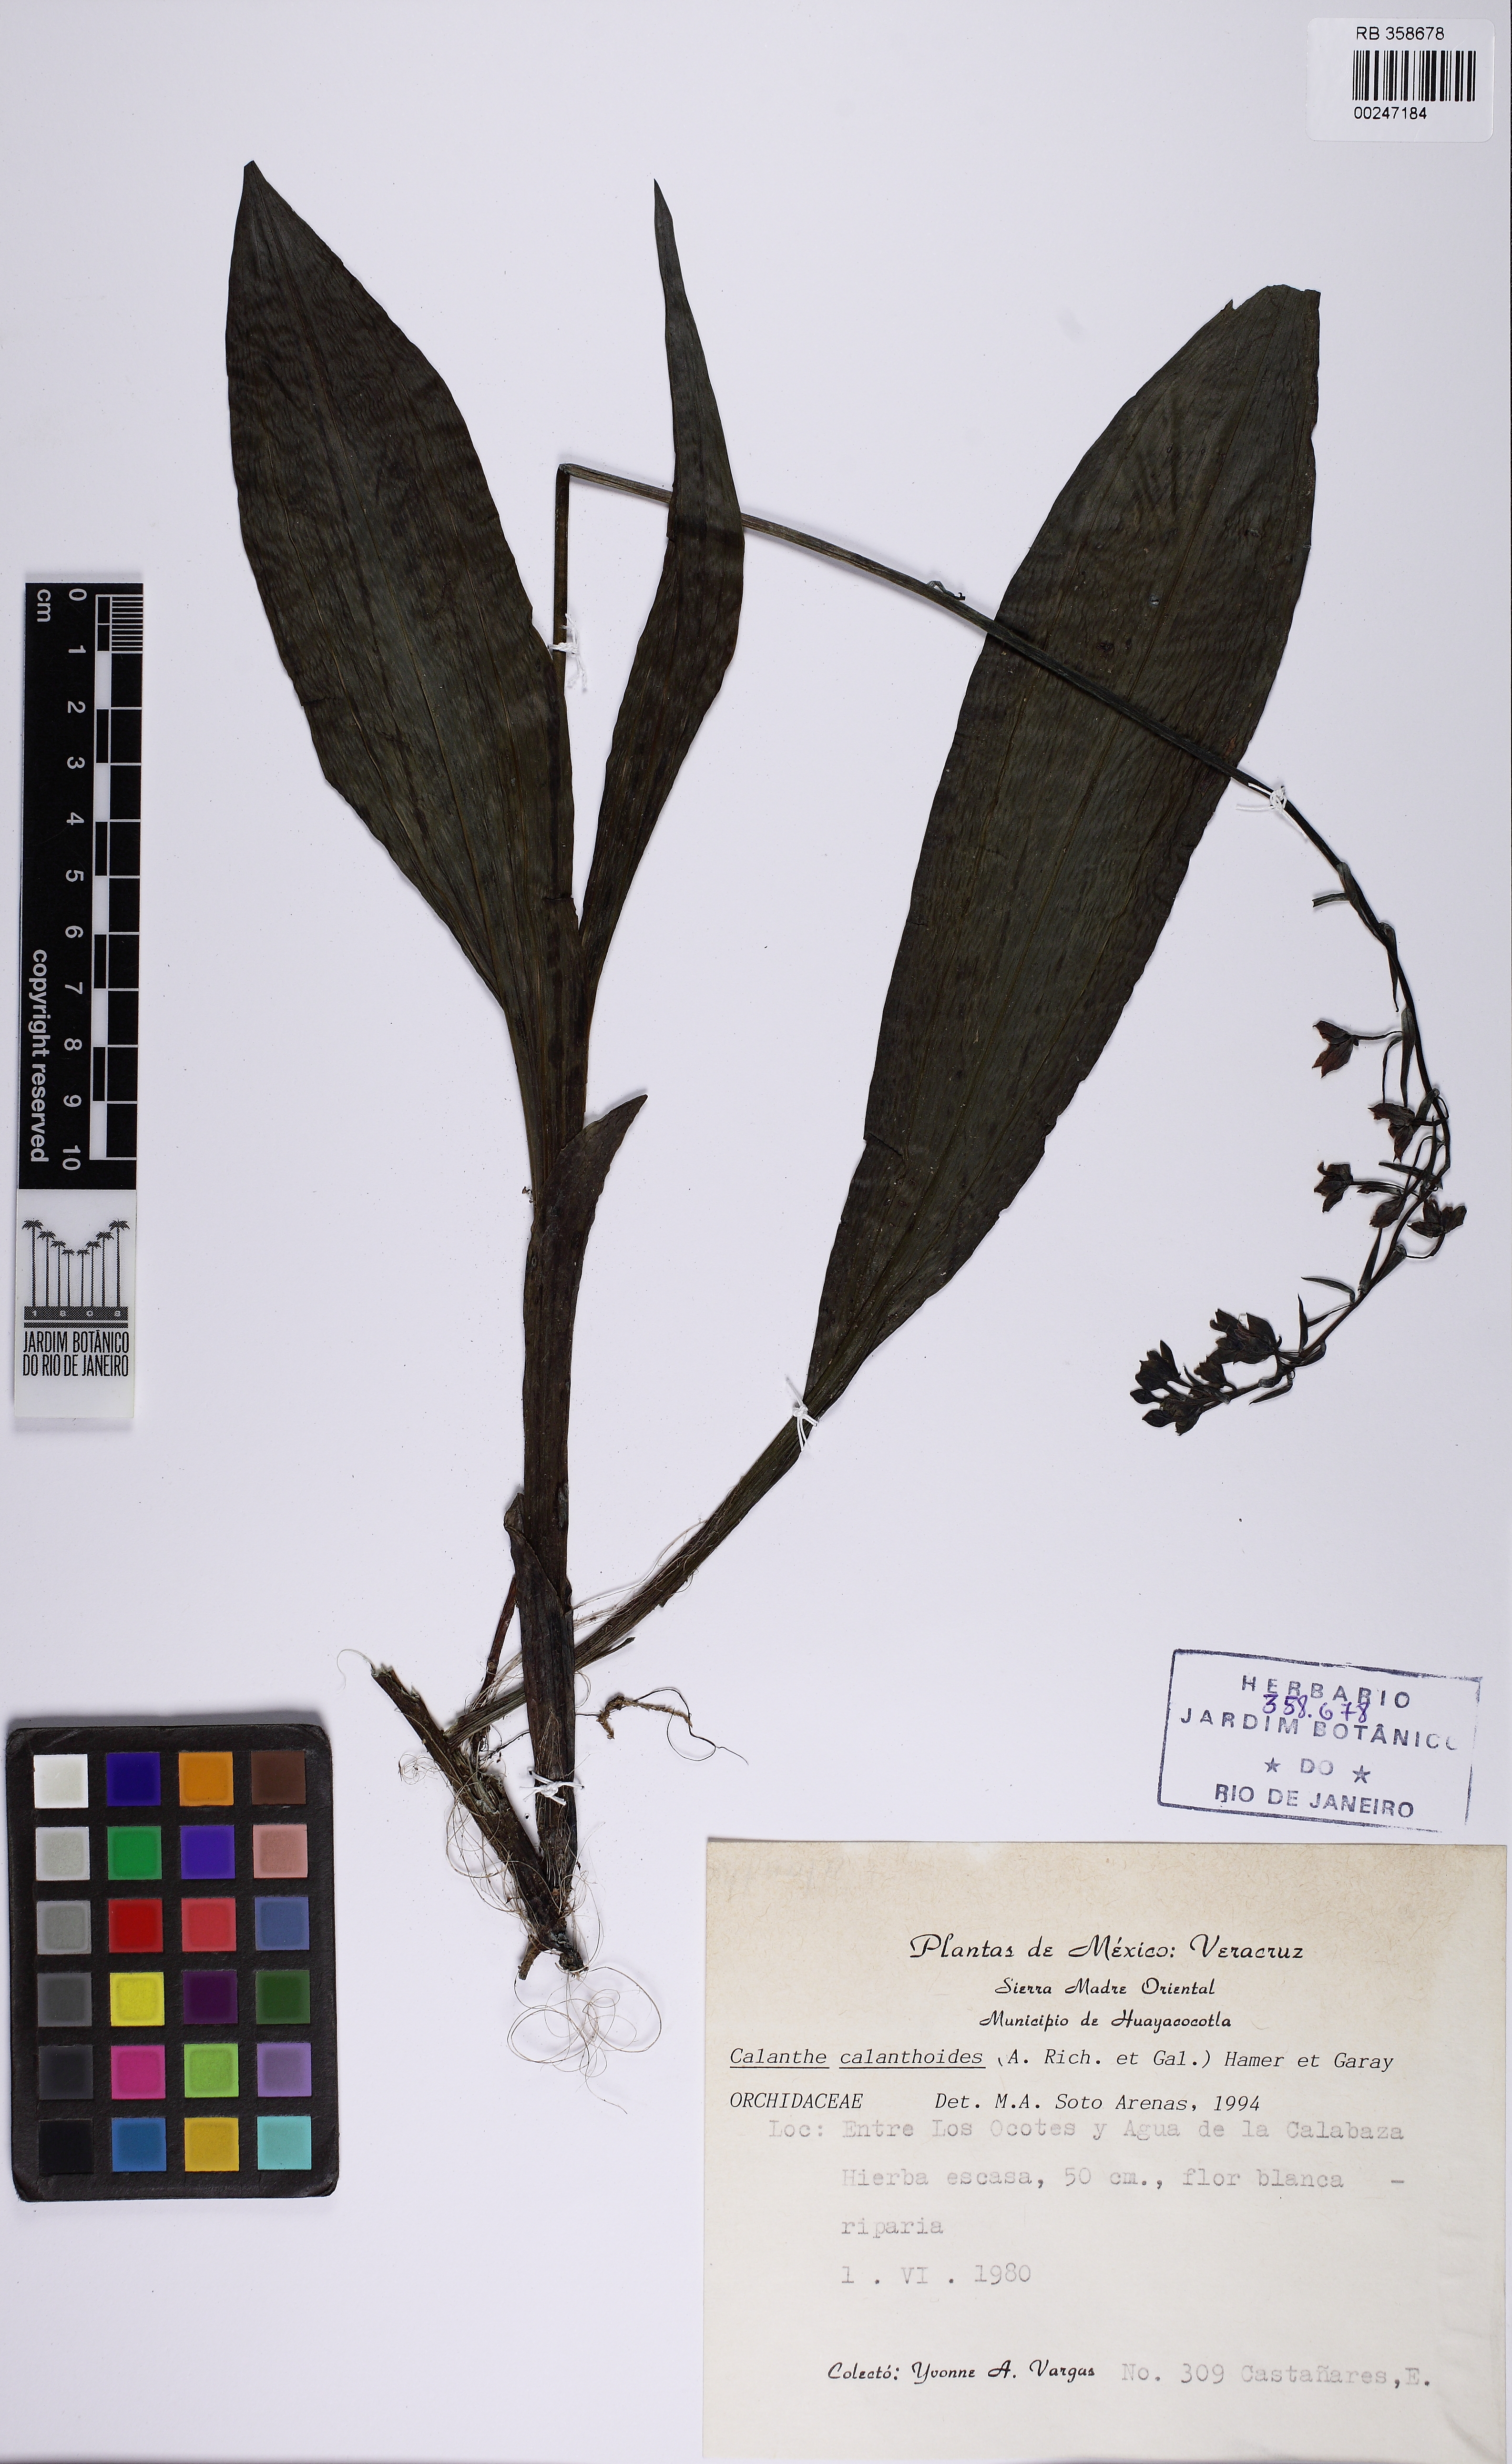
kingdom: Plantae
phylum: Tracheophyta
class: Liliopsida
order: Asparagales
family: Orchidaceae
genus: Calanthe
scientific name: Calanthe calanthoides
